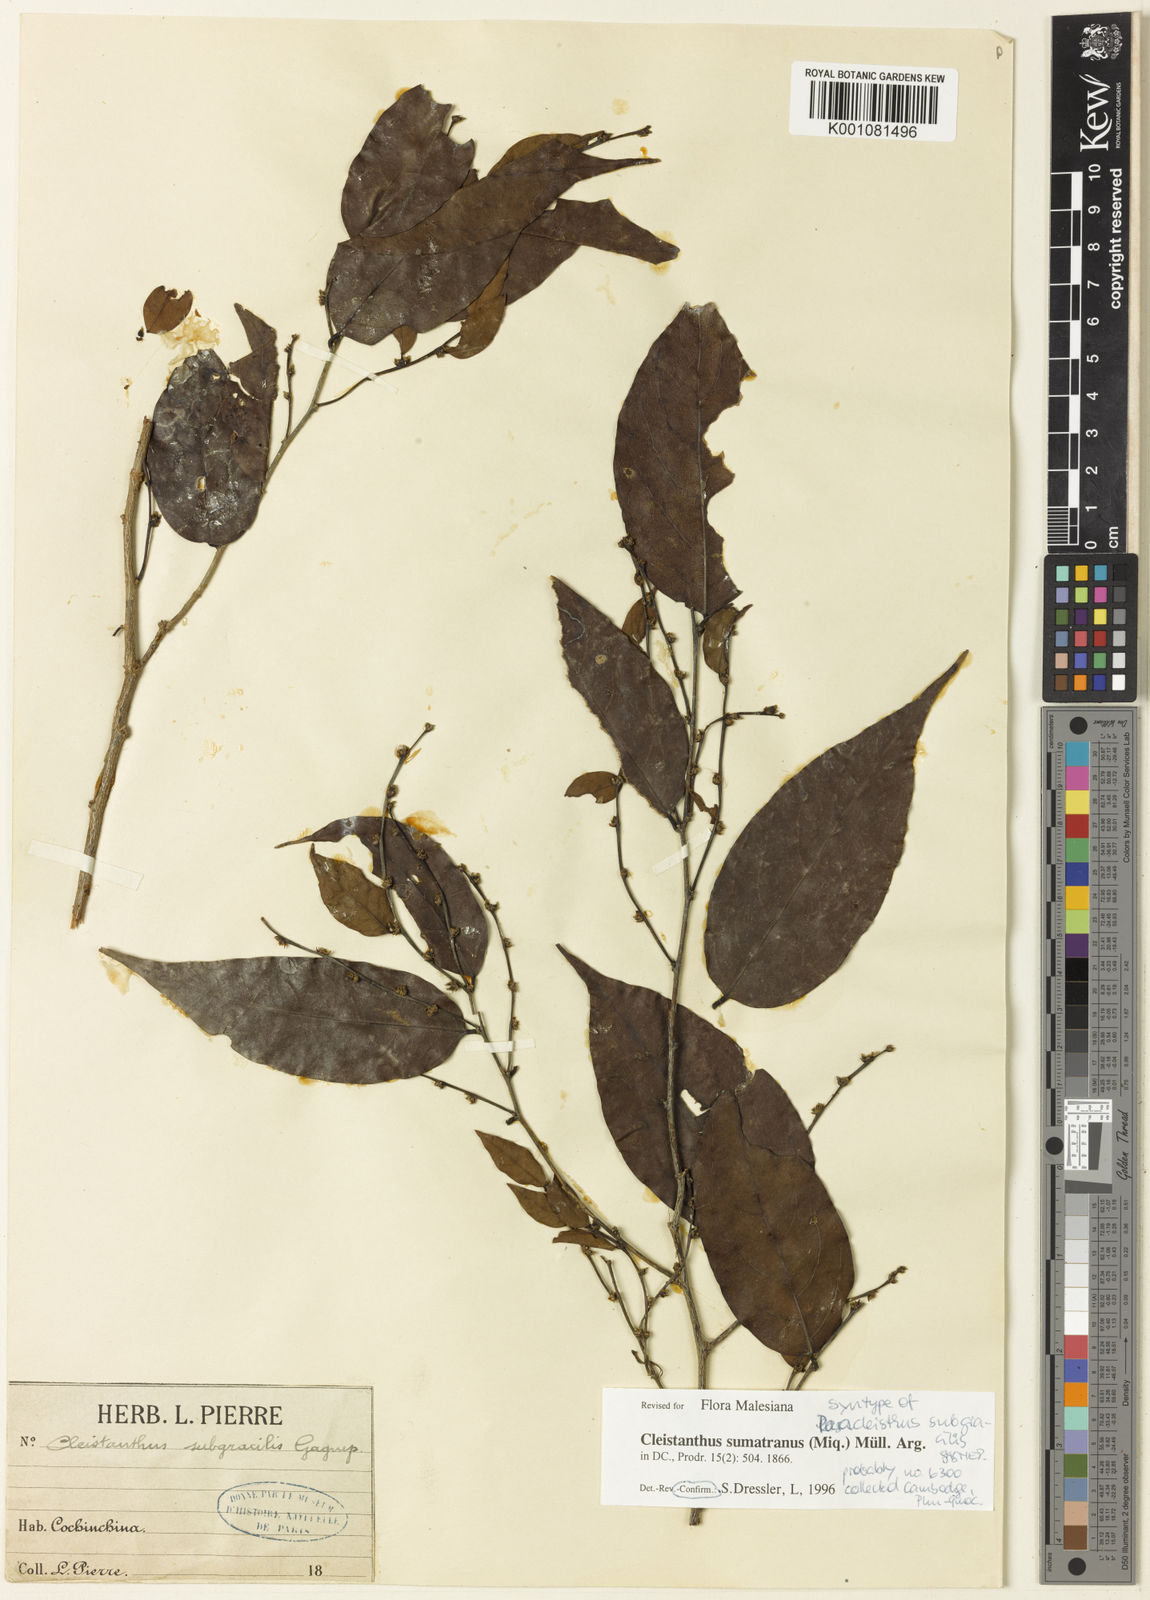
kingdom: Plantae
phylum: Tracheophyta
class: Magnoliopsida
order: Malpighiales
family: Phyllanthaceae
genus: Cleistanthus
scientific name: Cleistanthus
